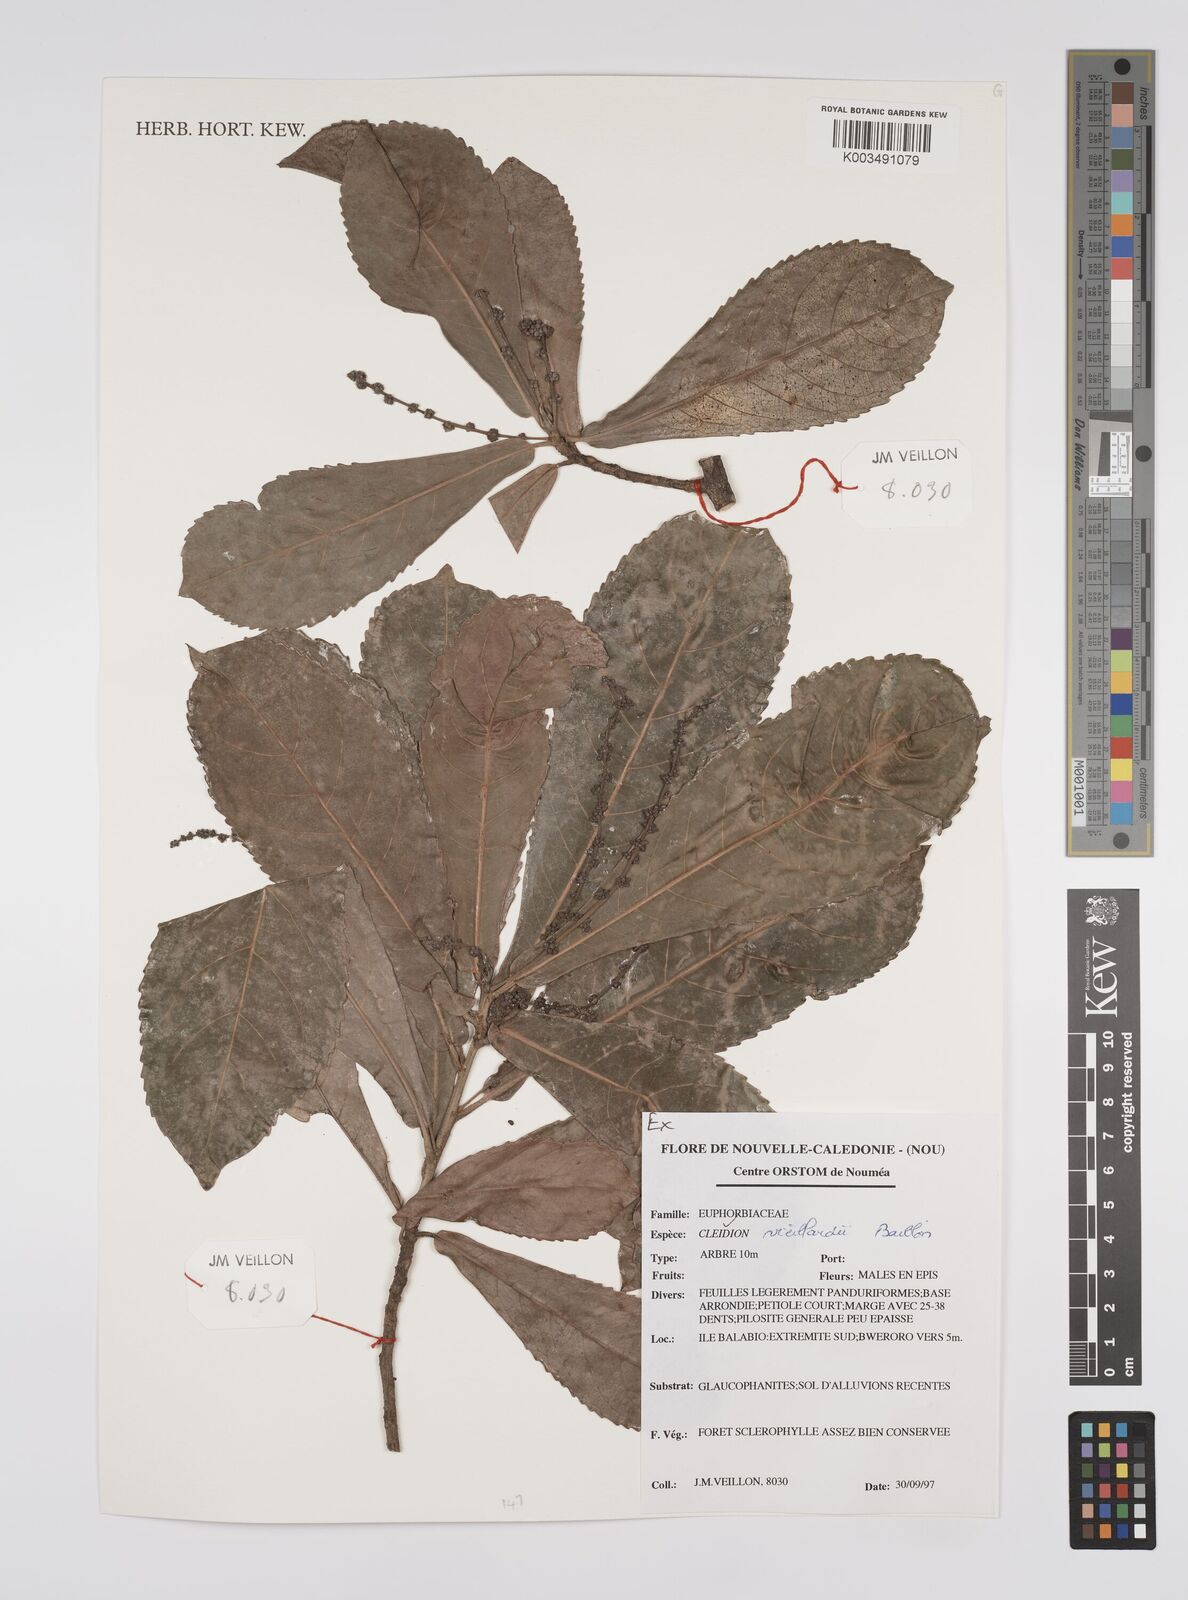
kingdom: Plantae
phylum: Tracheophyta
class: Magnoliopsida
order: Malpighiales
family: Euphorbiaceae
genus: Cleidion
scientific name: Cleidion vieillardii
